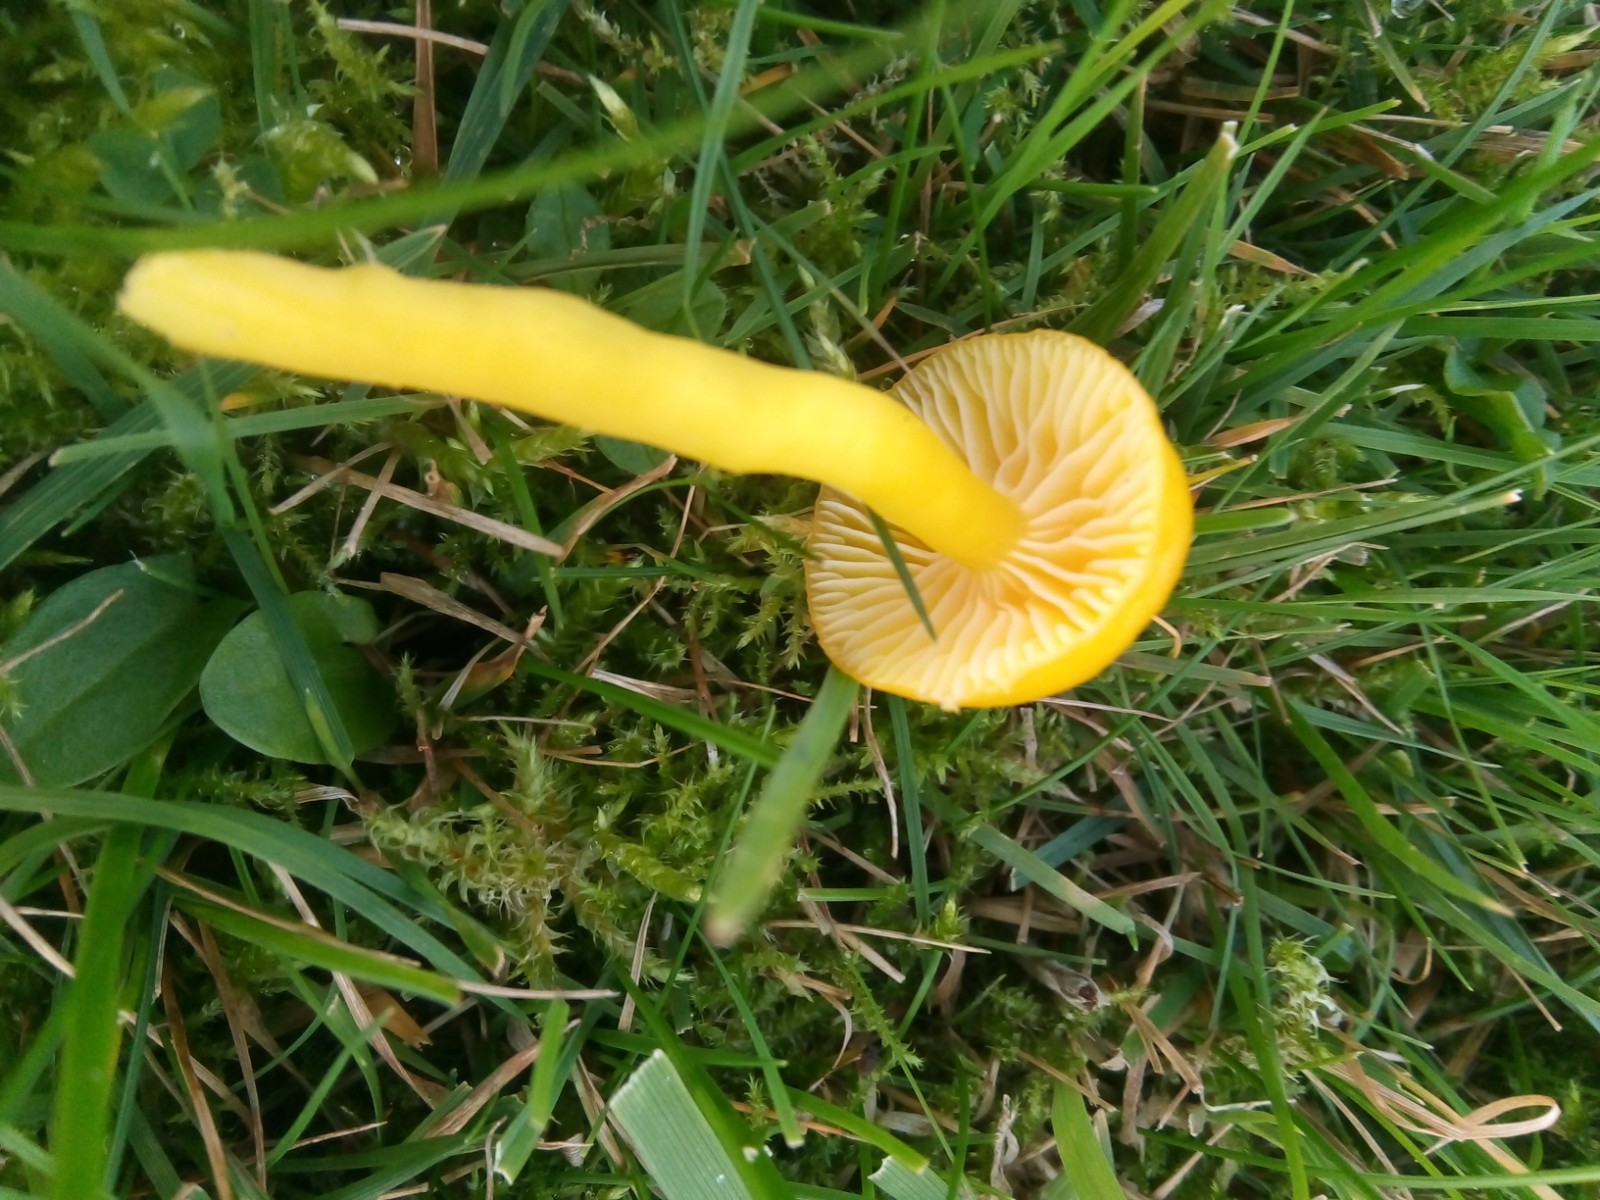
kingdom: Fungi
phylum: Basidiomycota
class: Agaricomycetes
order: Agaricales
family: Hygrophoraceae
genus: Hygrocybe
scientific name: Hygrocybe ceracea
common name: voksgul vokshat
